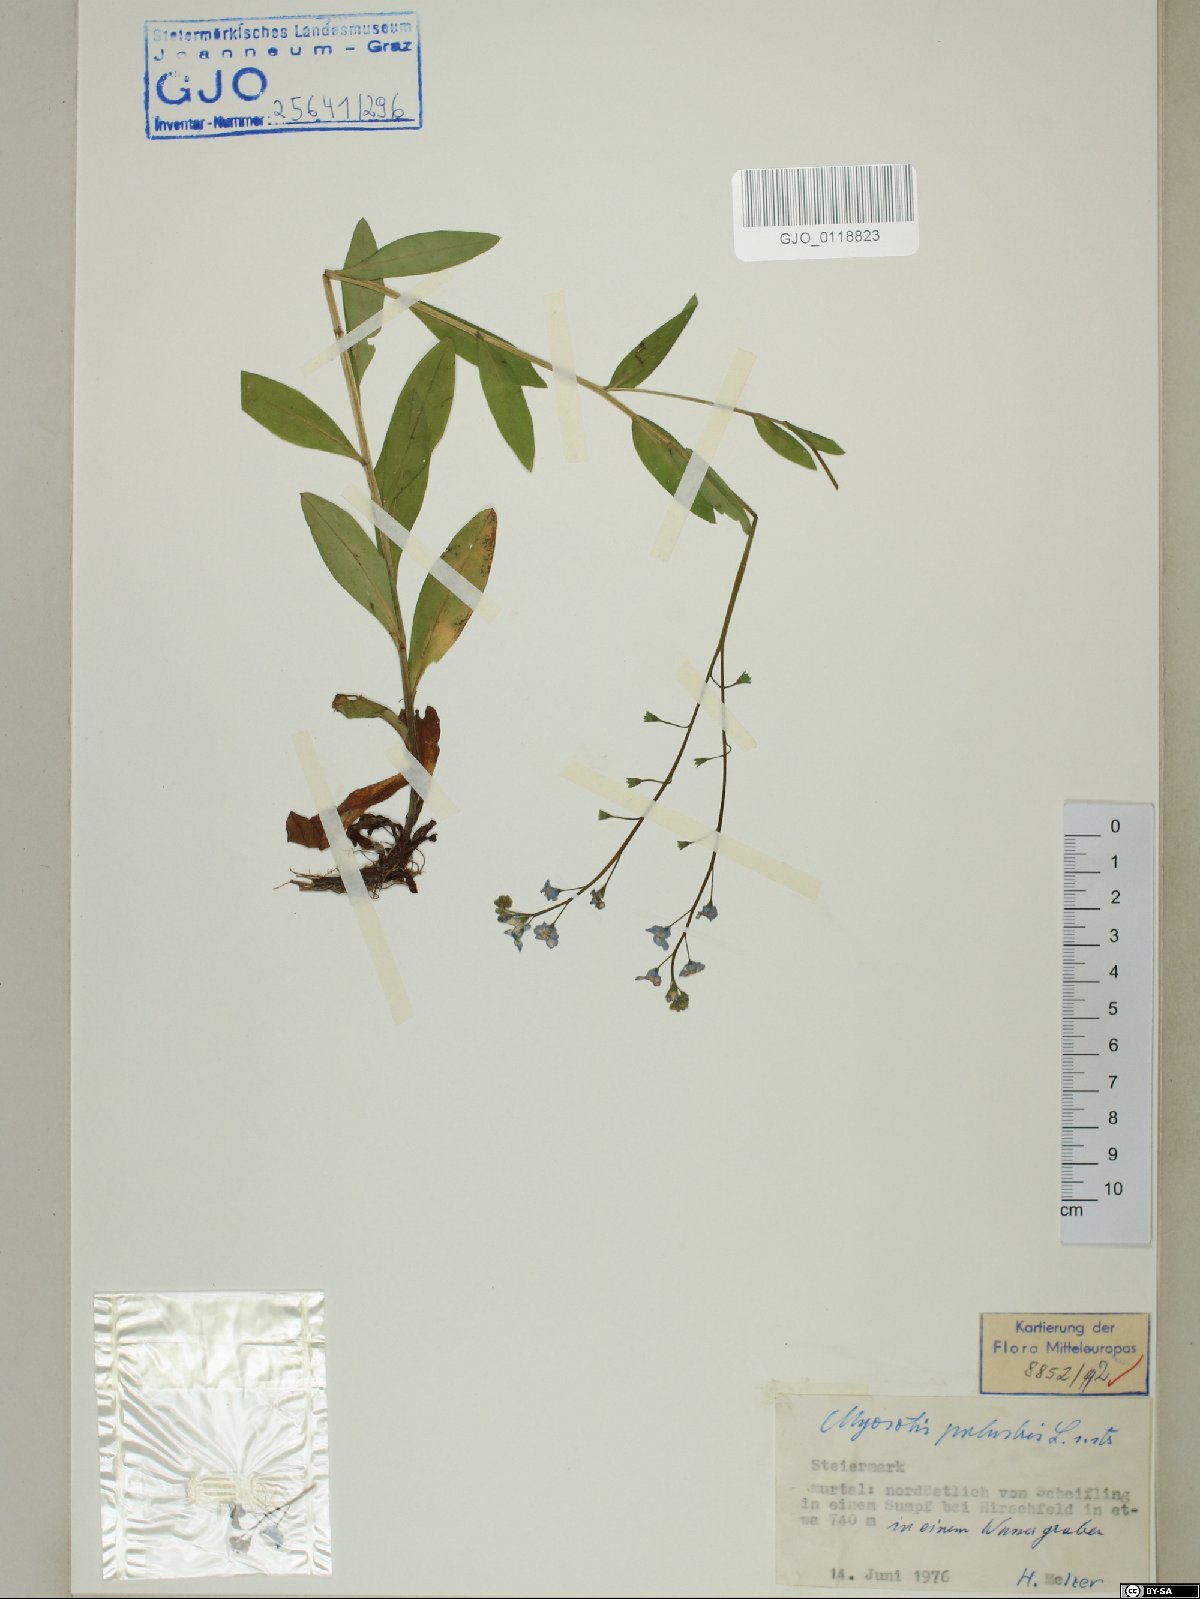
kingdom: Plantae
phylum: Tracheophyta
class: Magnoliopsida
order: Boraginales
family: Boraginaceae
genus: Myosotis
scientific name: Myosotis scorpioides
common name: Water forget-me-not
